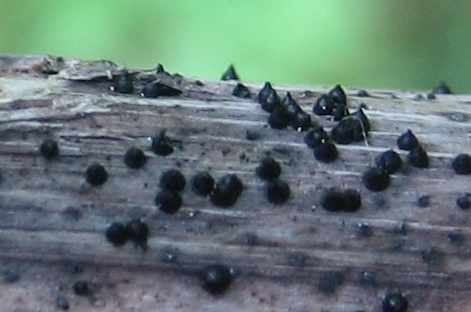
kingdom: Fungi
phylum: Ascomycota
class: Dothideomycetes
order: Pleosporales
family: Leptosphaeriaceae
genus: Leptosphaeria
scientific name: Leptosphaeria acuta
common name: spids kulkegle
